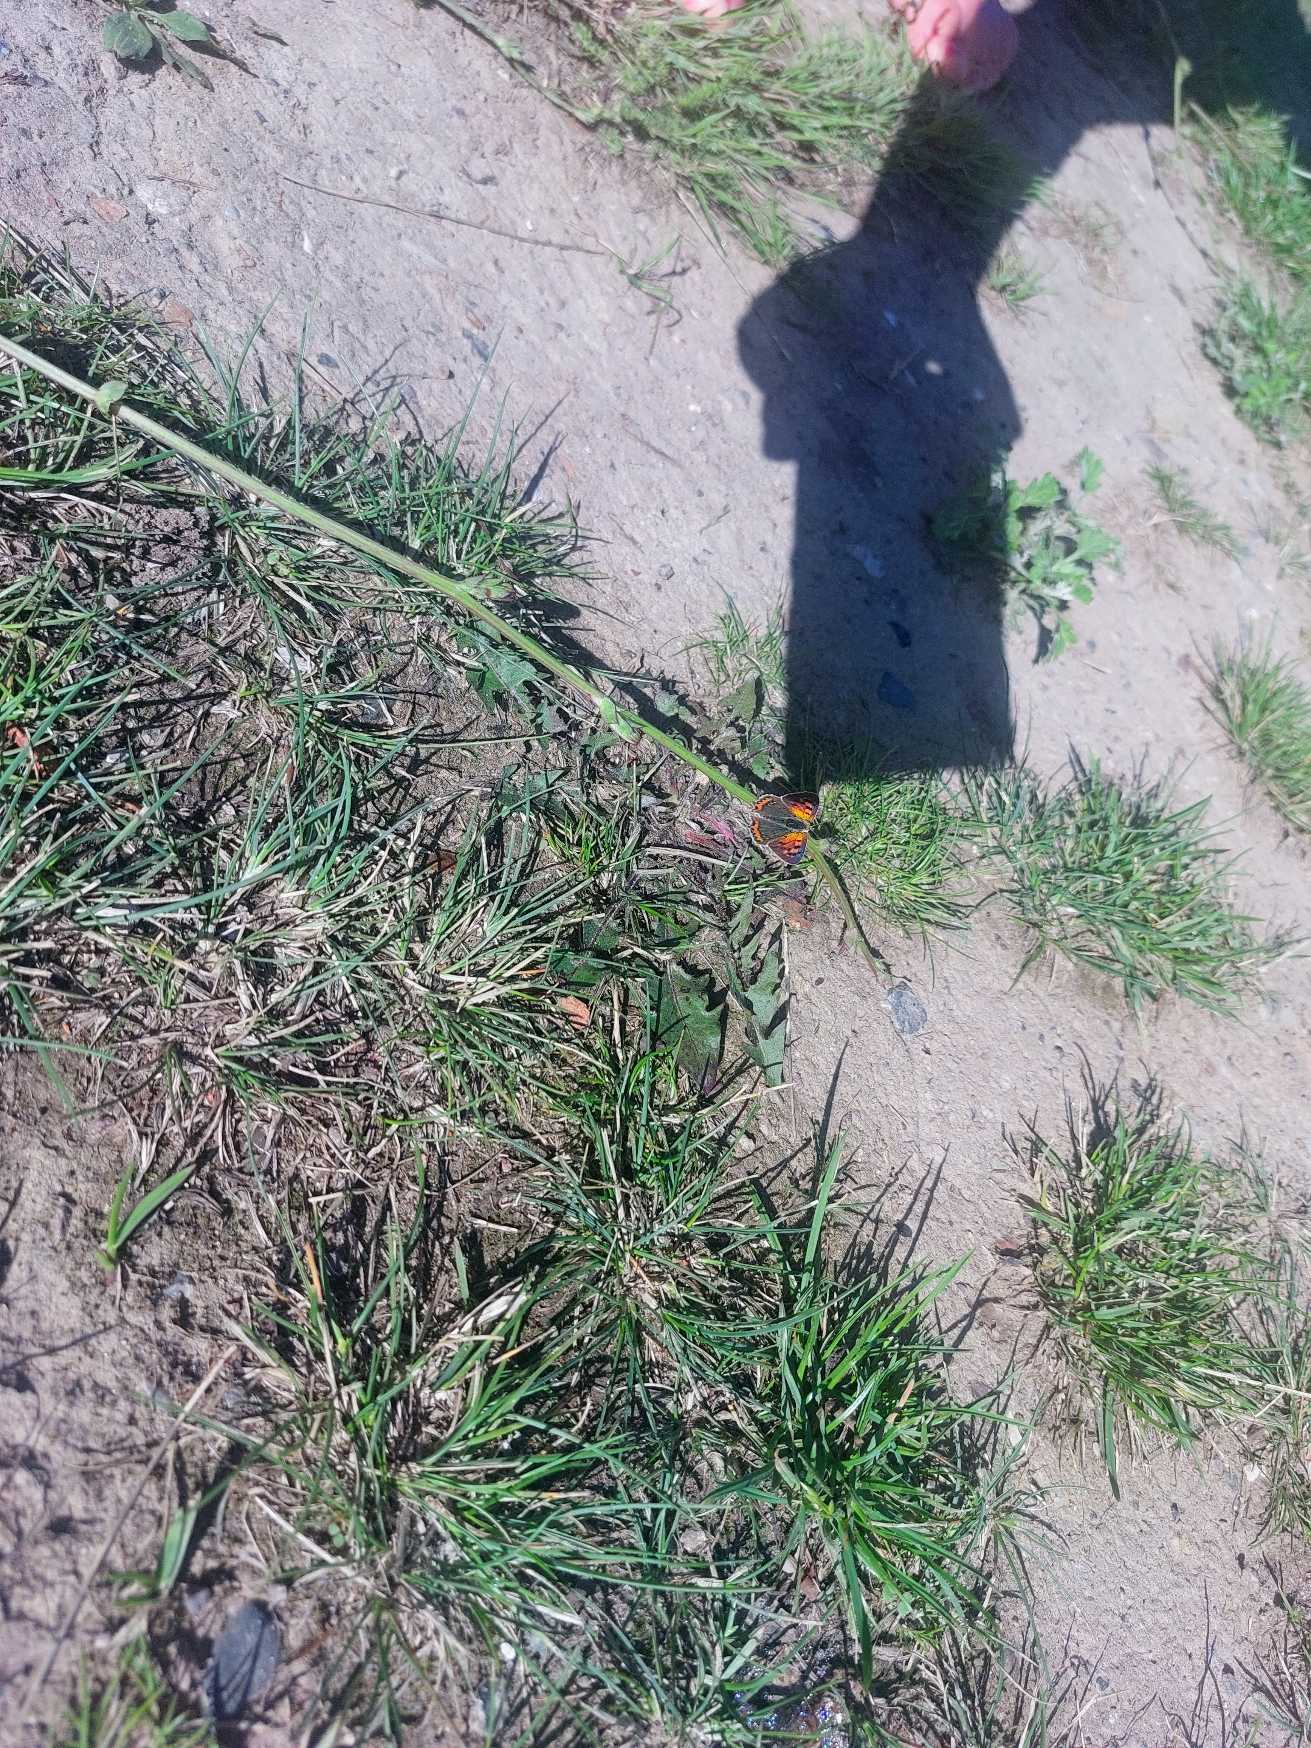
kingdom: Animalia
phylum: Arthropoda
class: Insecta
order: Lepidoptera
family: Lycaenidae
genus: Lycaena
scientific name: Lycaena phlaeas
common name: Lille ildfugl
